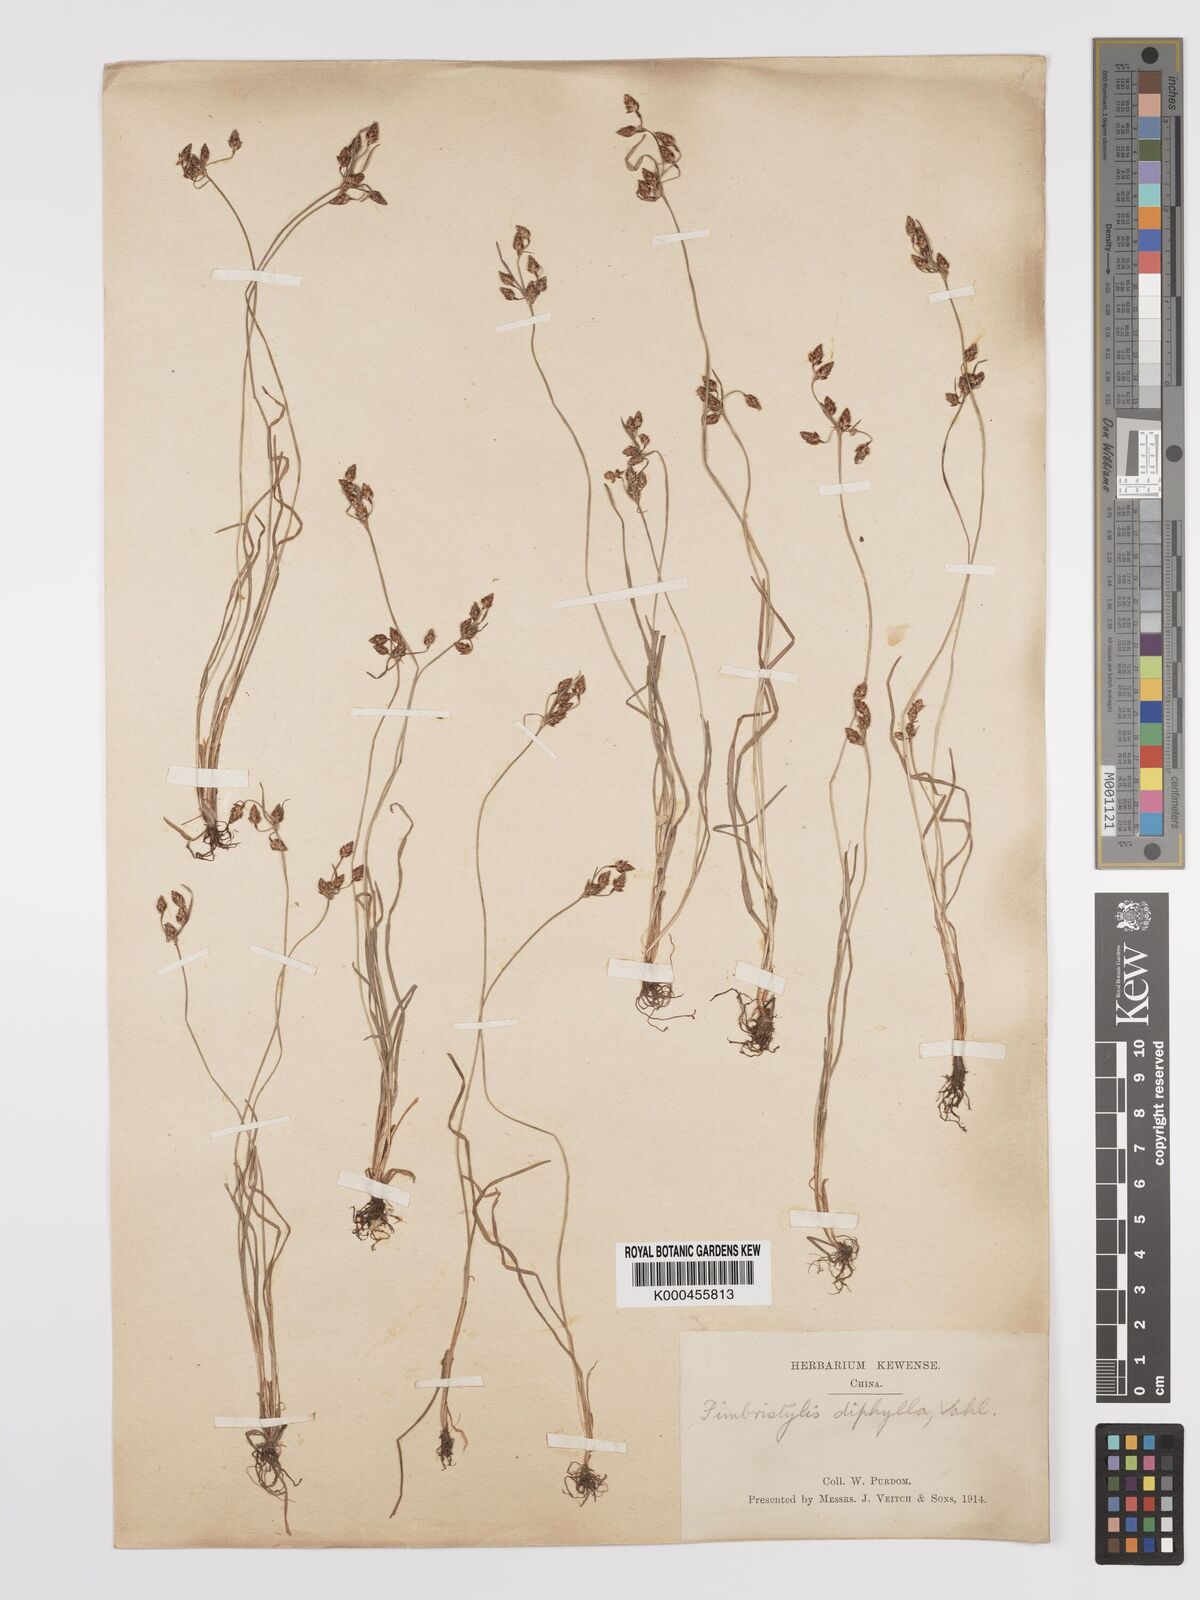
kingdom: Plantae
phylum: Tracheophyta
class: Liliopsida
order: Poales
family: Cyperaceae
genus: Fimbristylis
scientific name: Fimbristylis dichotoma
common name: Forked fimbry
